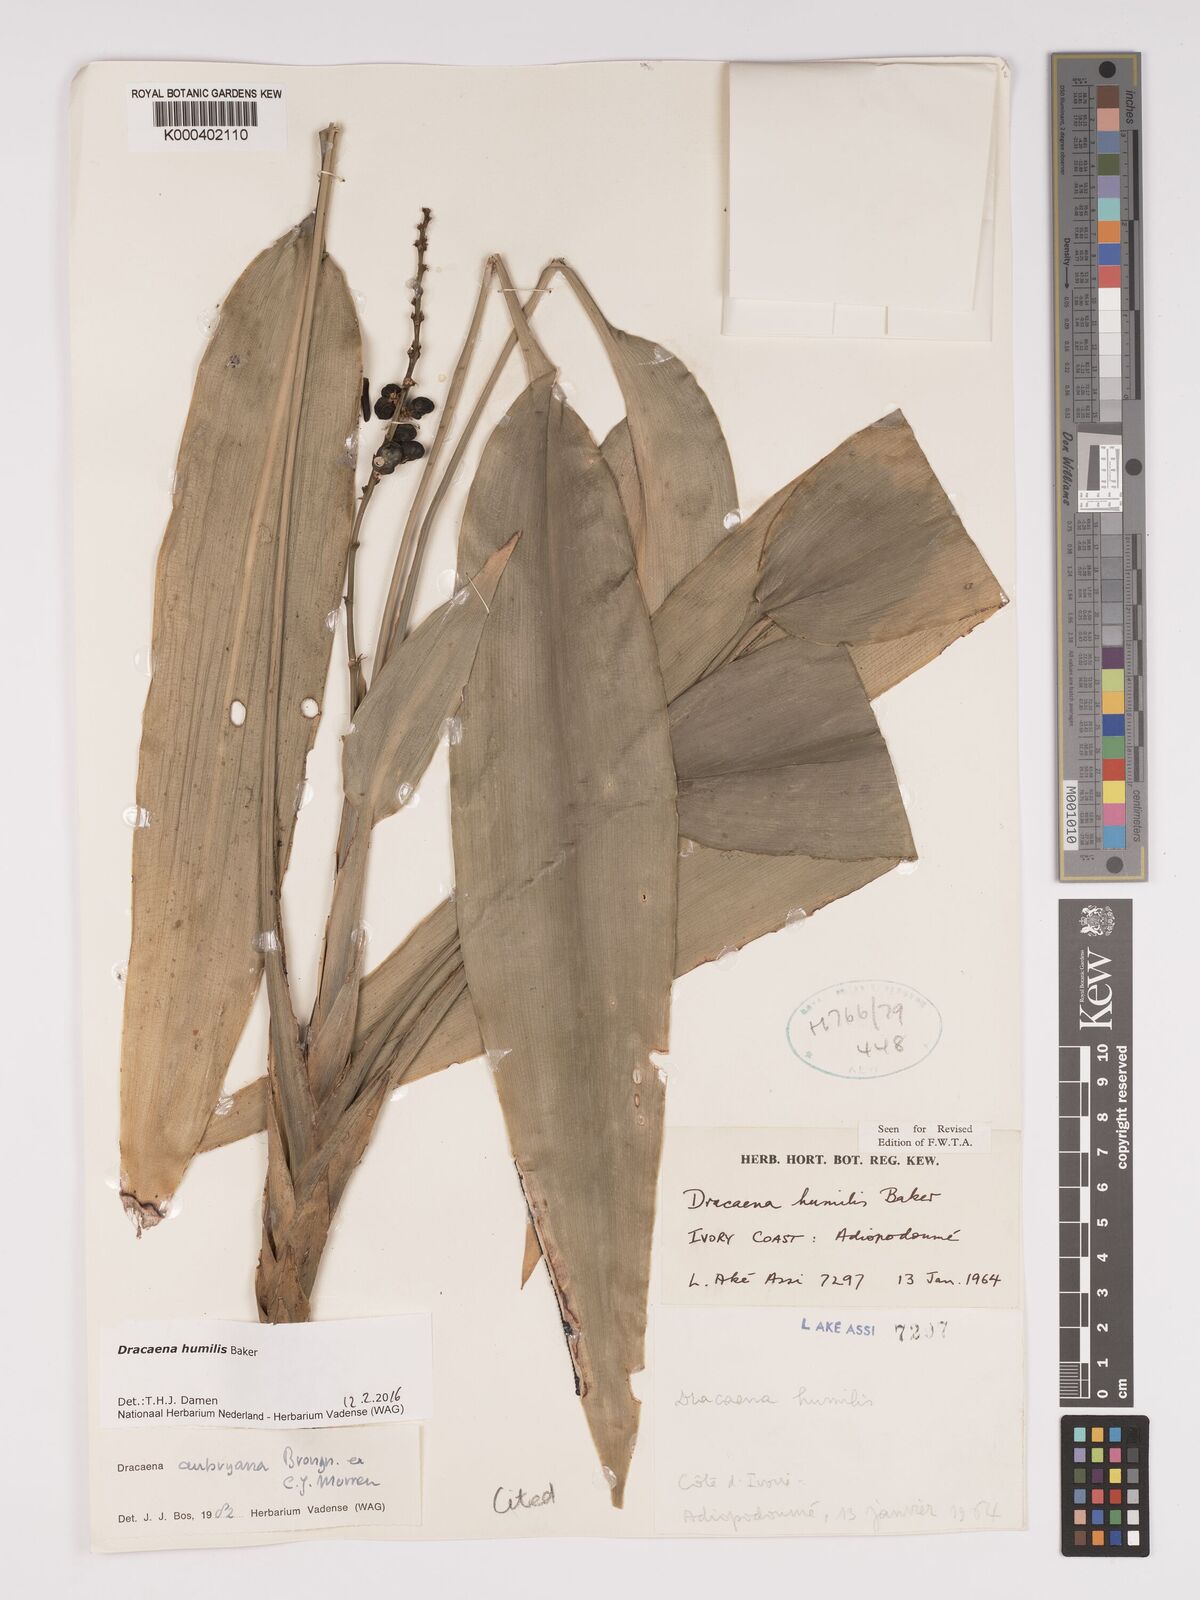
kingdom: Plantae
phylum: Tracheophyta
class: Liliopsida
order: Asparagales
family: Asparagaceae
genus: Dracaena
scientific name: Dracaena aubryana
